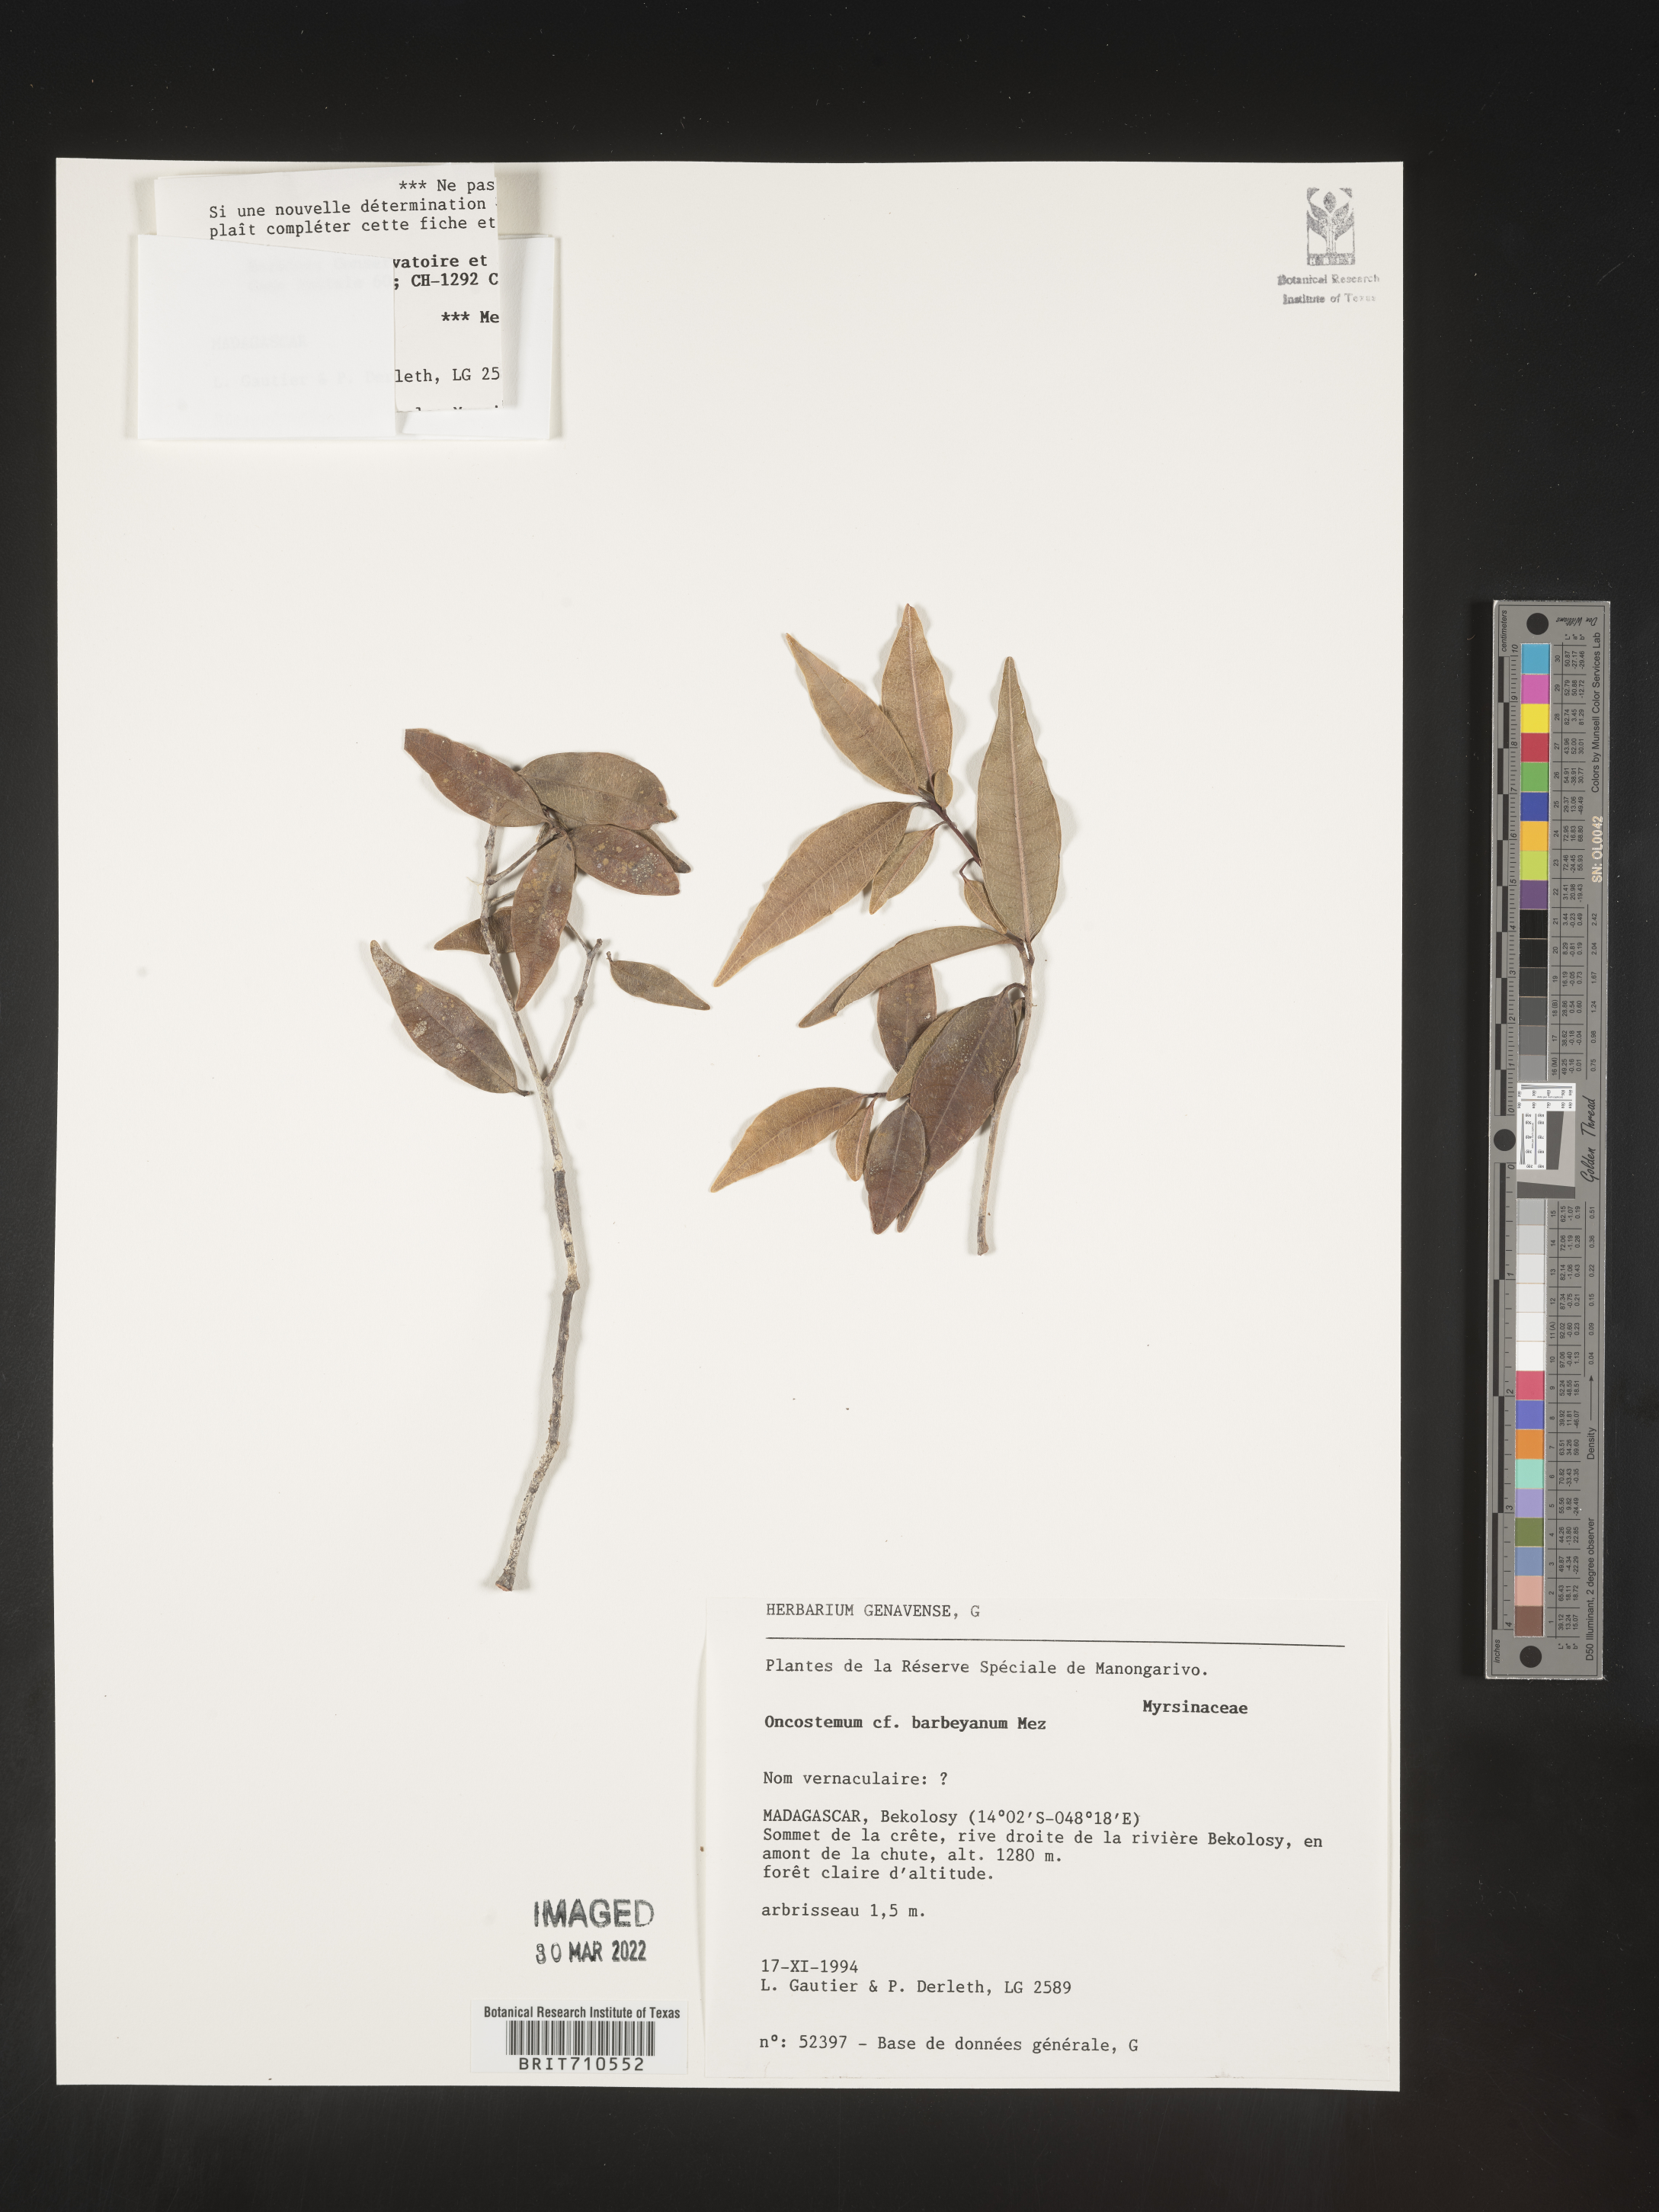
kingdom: Plantae
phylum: Tracheophyta
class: Magnoliopsida
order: Ericales
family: Primulaceae
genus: Oncostemum
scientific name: Oncostemum
